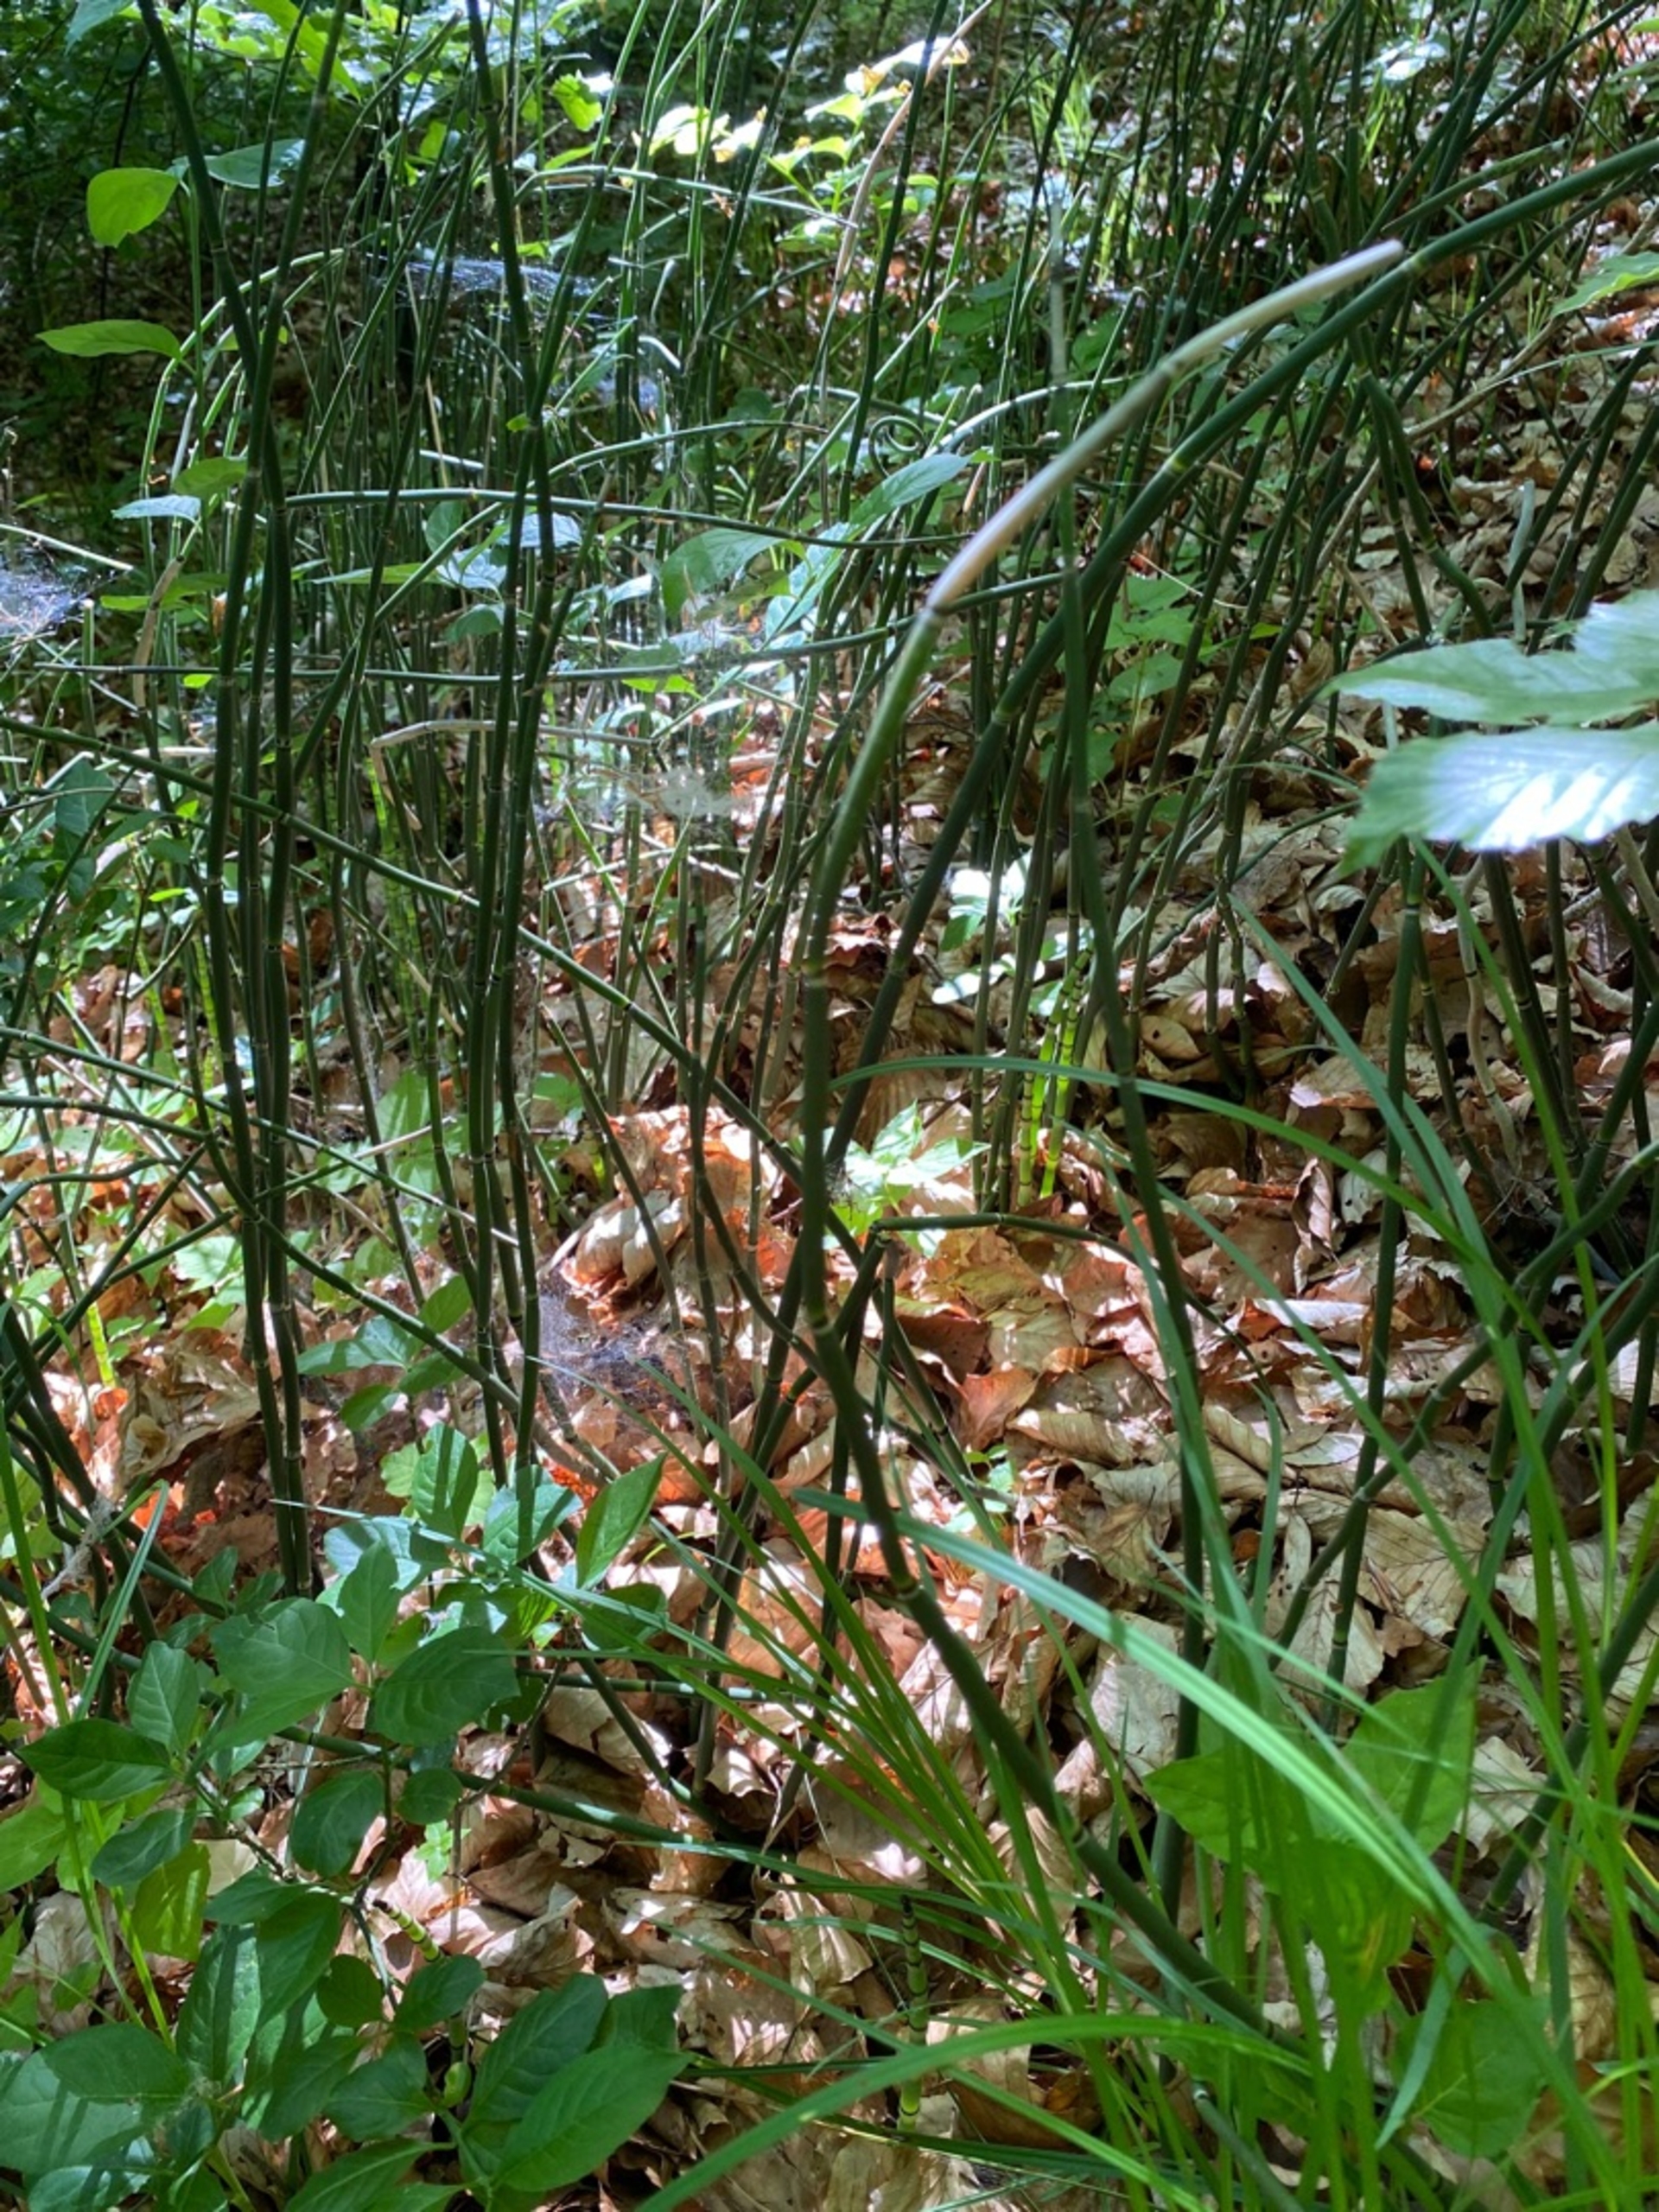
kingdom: Plantae
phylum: Tracheophyta
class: Polypodiopsida
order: Equisetales
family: Equisetaceae
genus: Equisetum
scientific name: Equisetum hyemale
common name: Skavgræs
